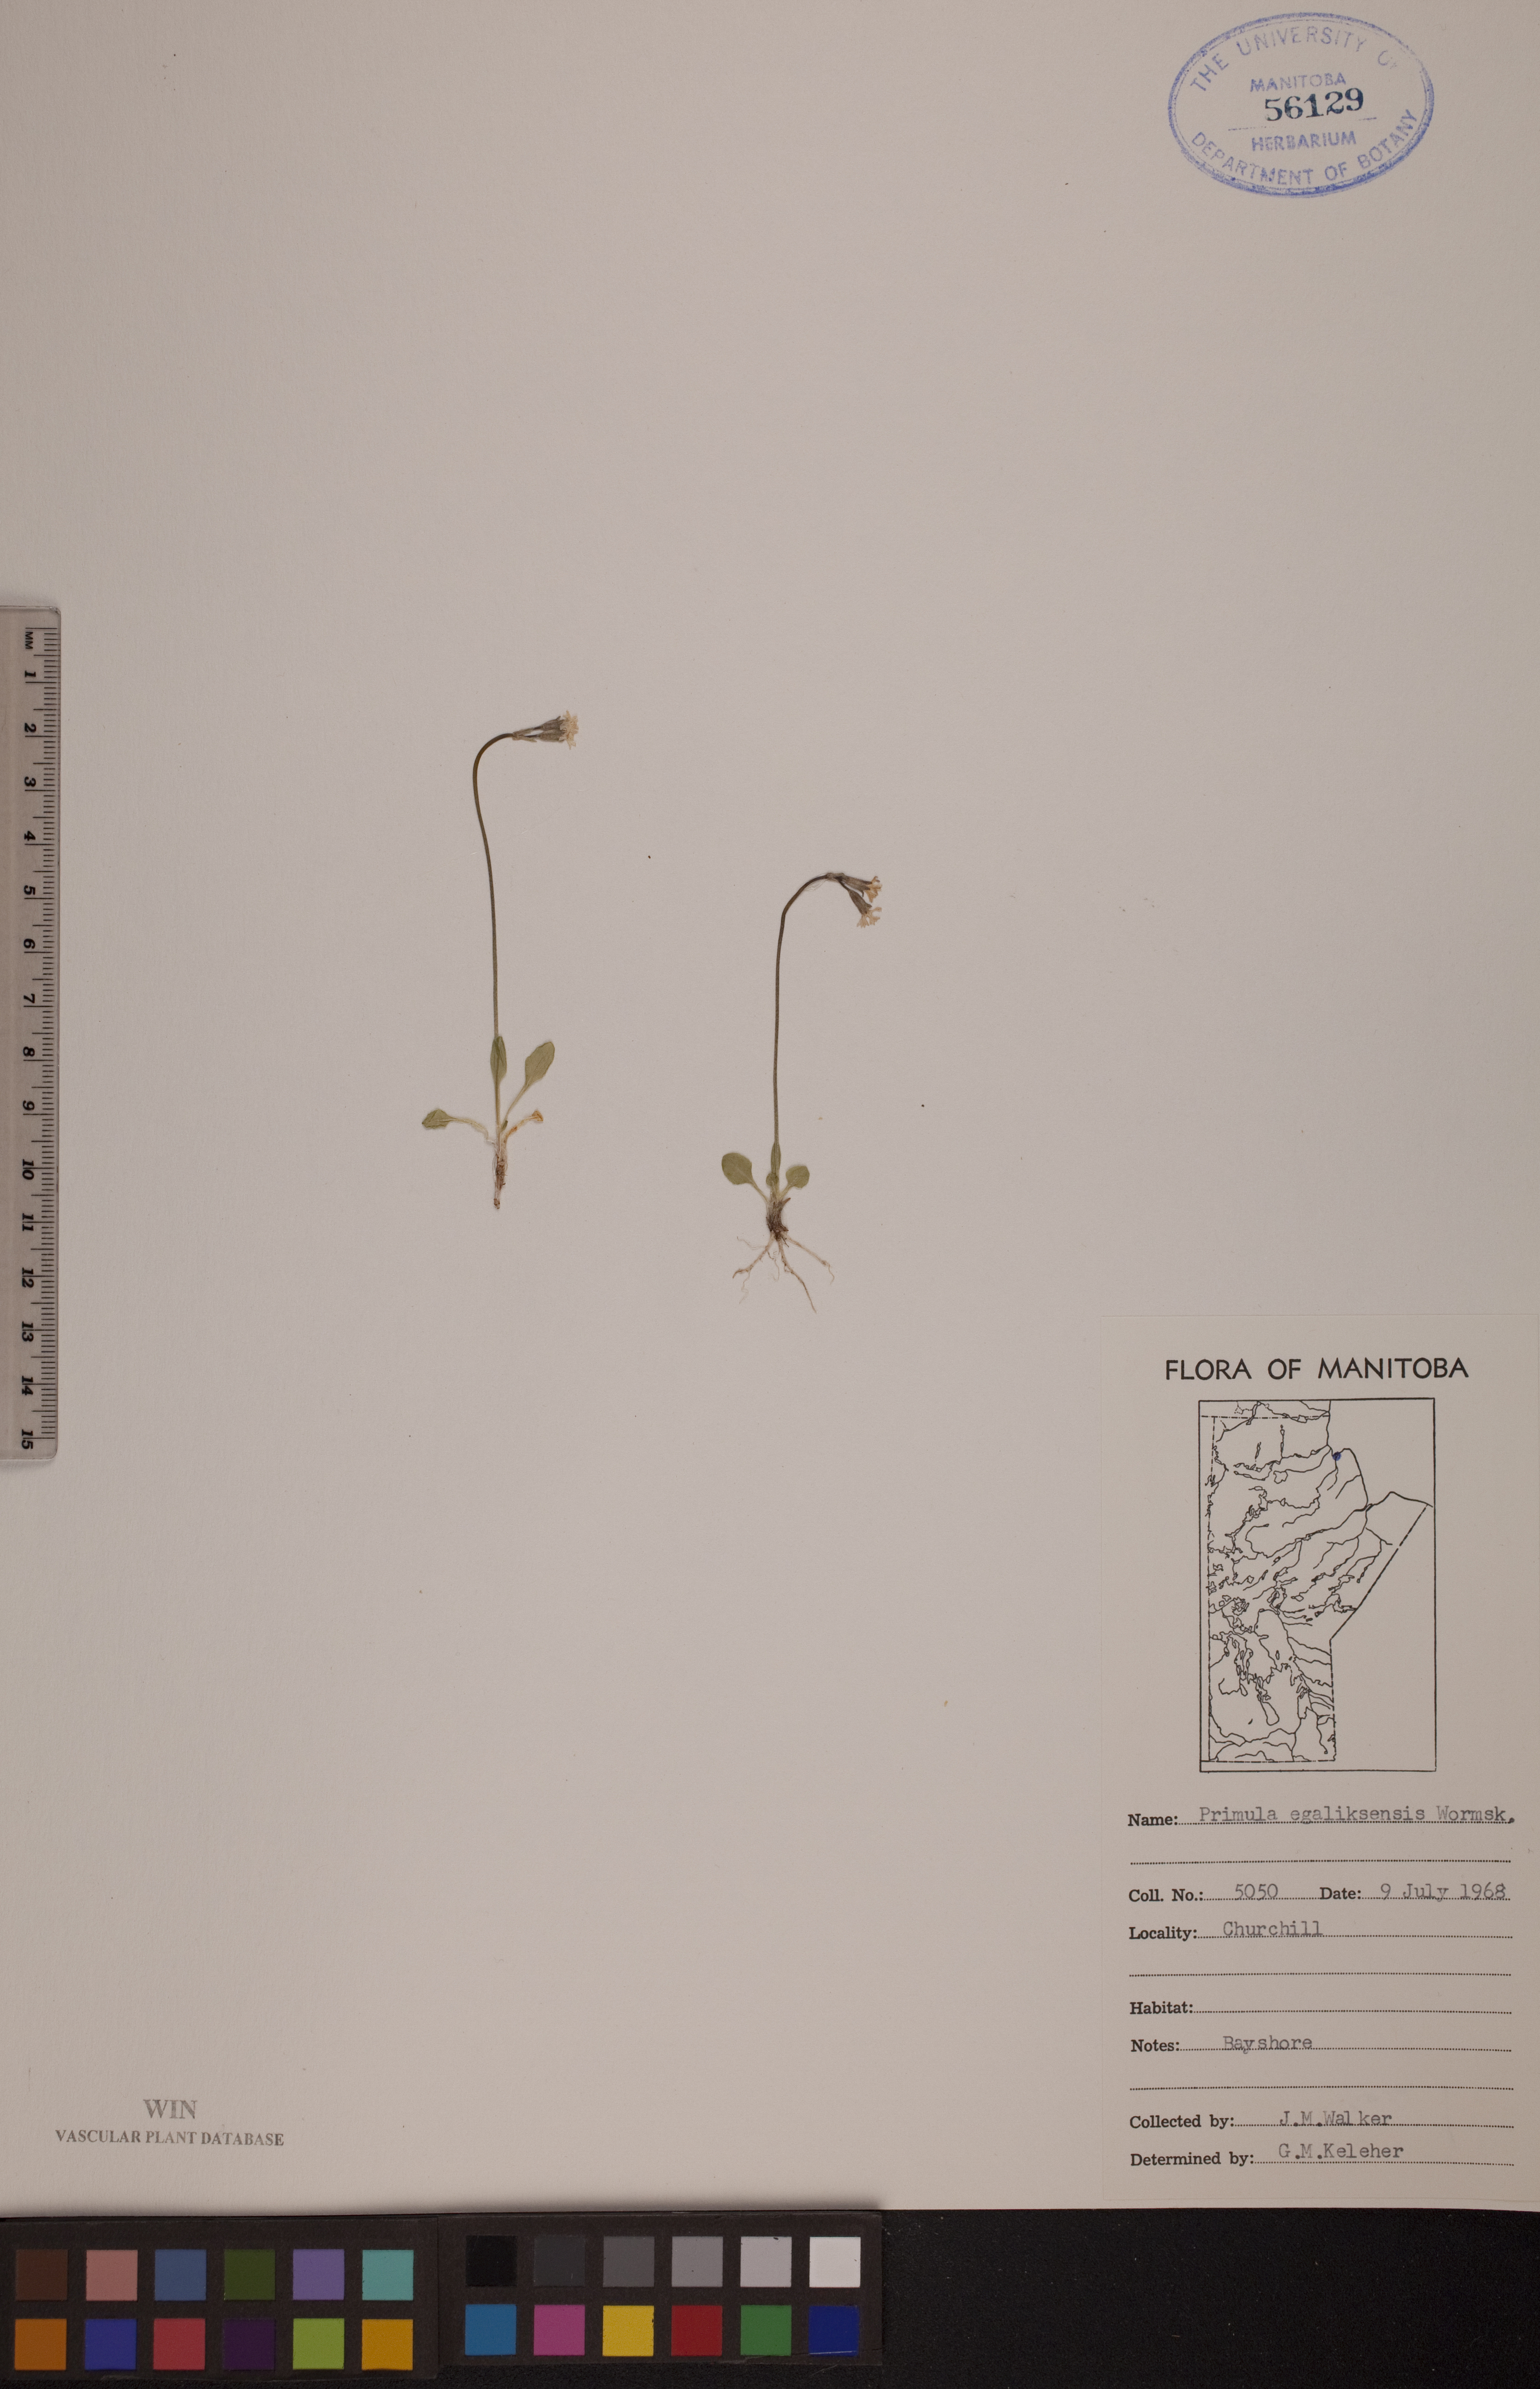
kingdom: Plantae
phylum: Tracheophyta
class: Magnoliopsida
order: Ericales
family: Primulaceae
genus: Primula
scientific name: Primula egaliksensis
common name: Greenland primrose
